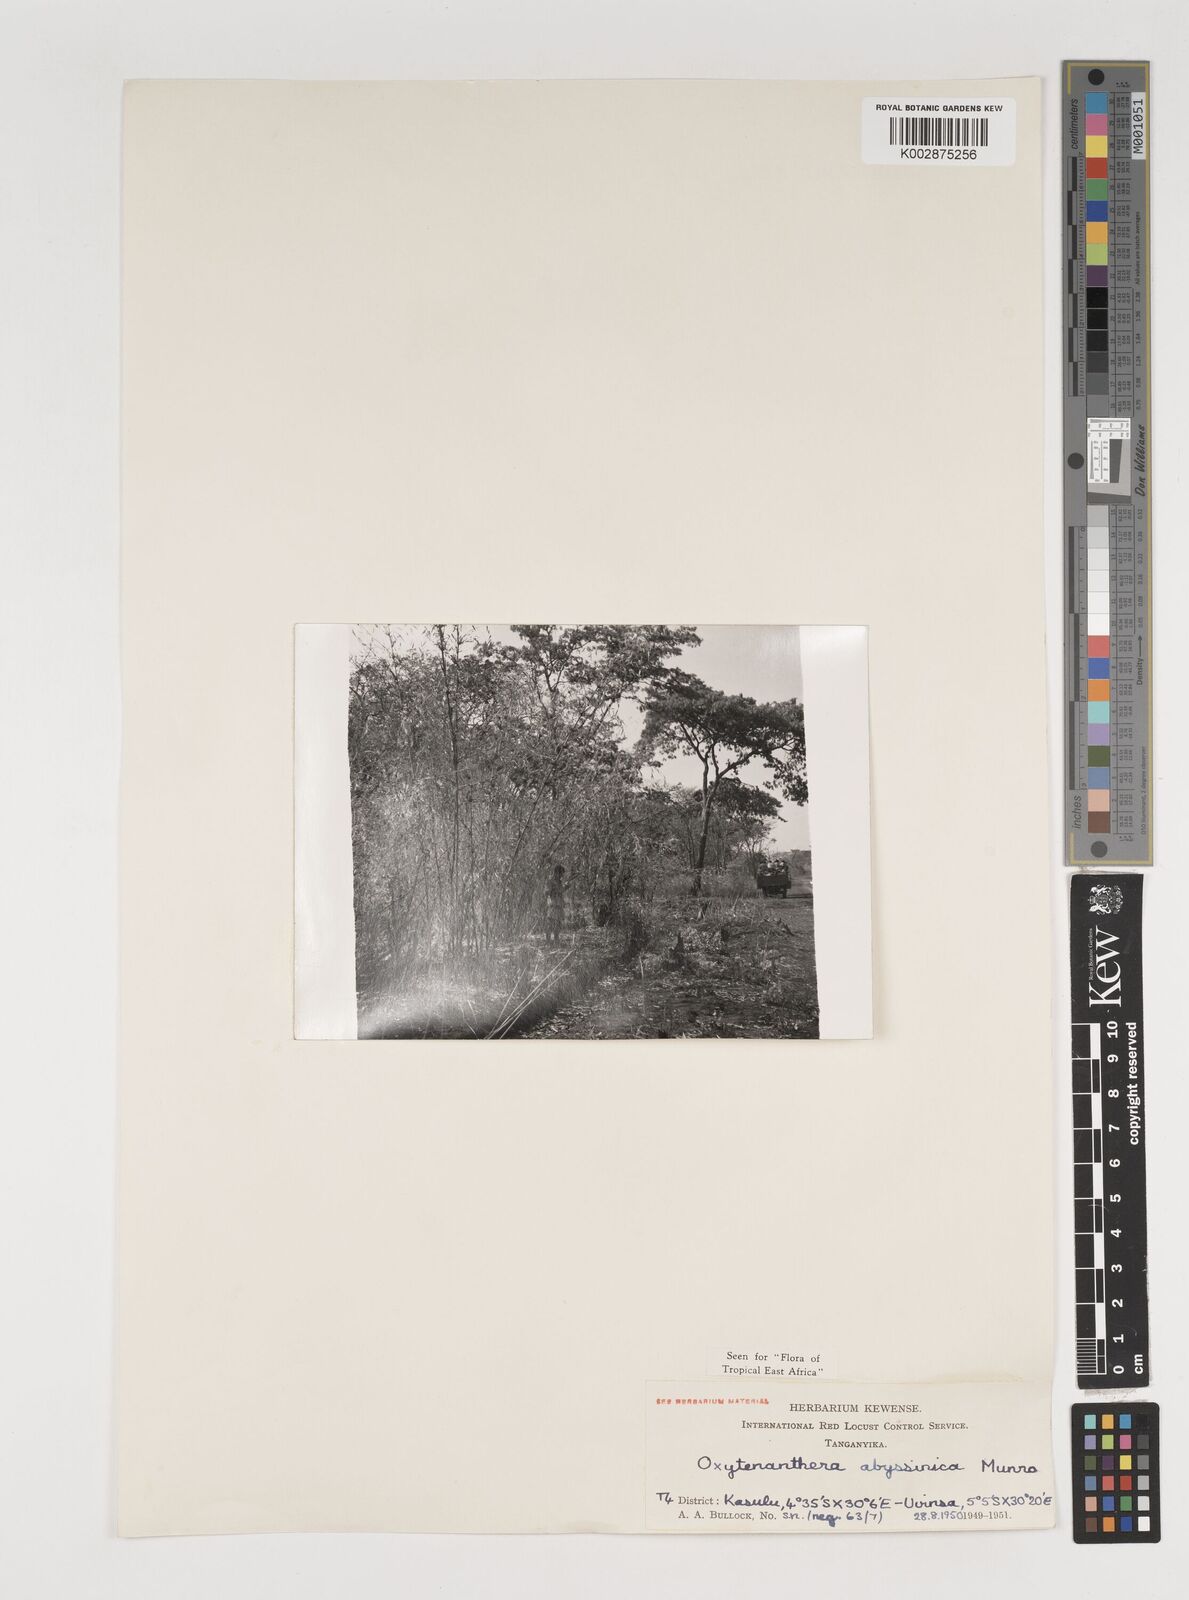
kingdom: Plantae
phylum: Tracheophyta
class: Liliopsida
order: Poales
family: Poaceae
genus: Oxytenanthera
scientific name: Oxytenanthera abyssinica
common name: Wine bamboo
